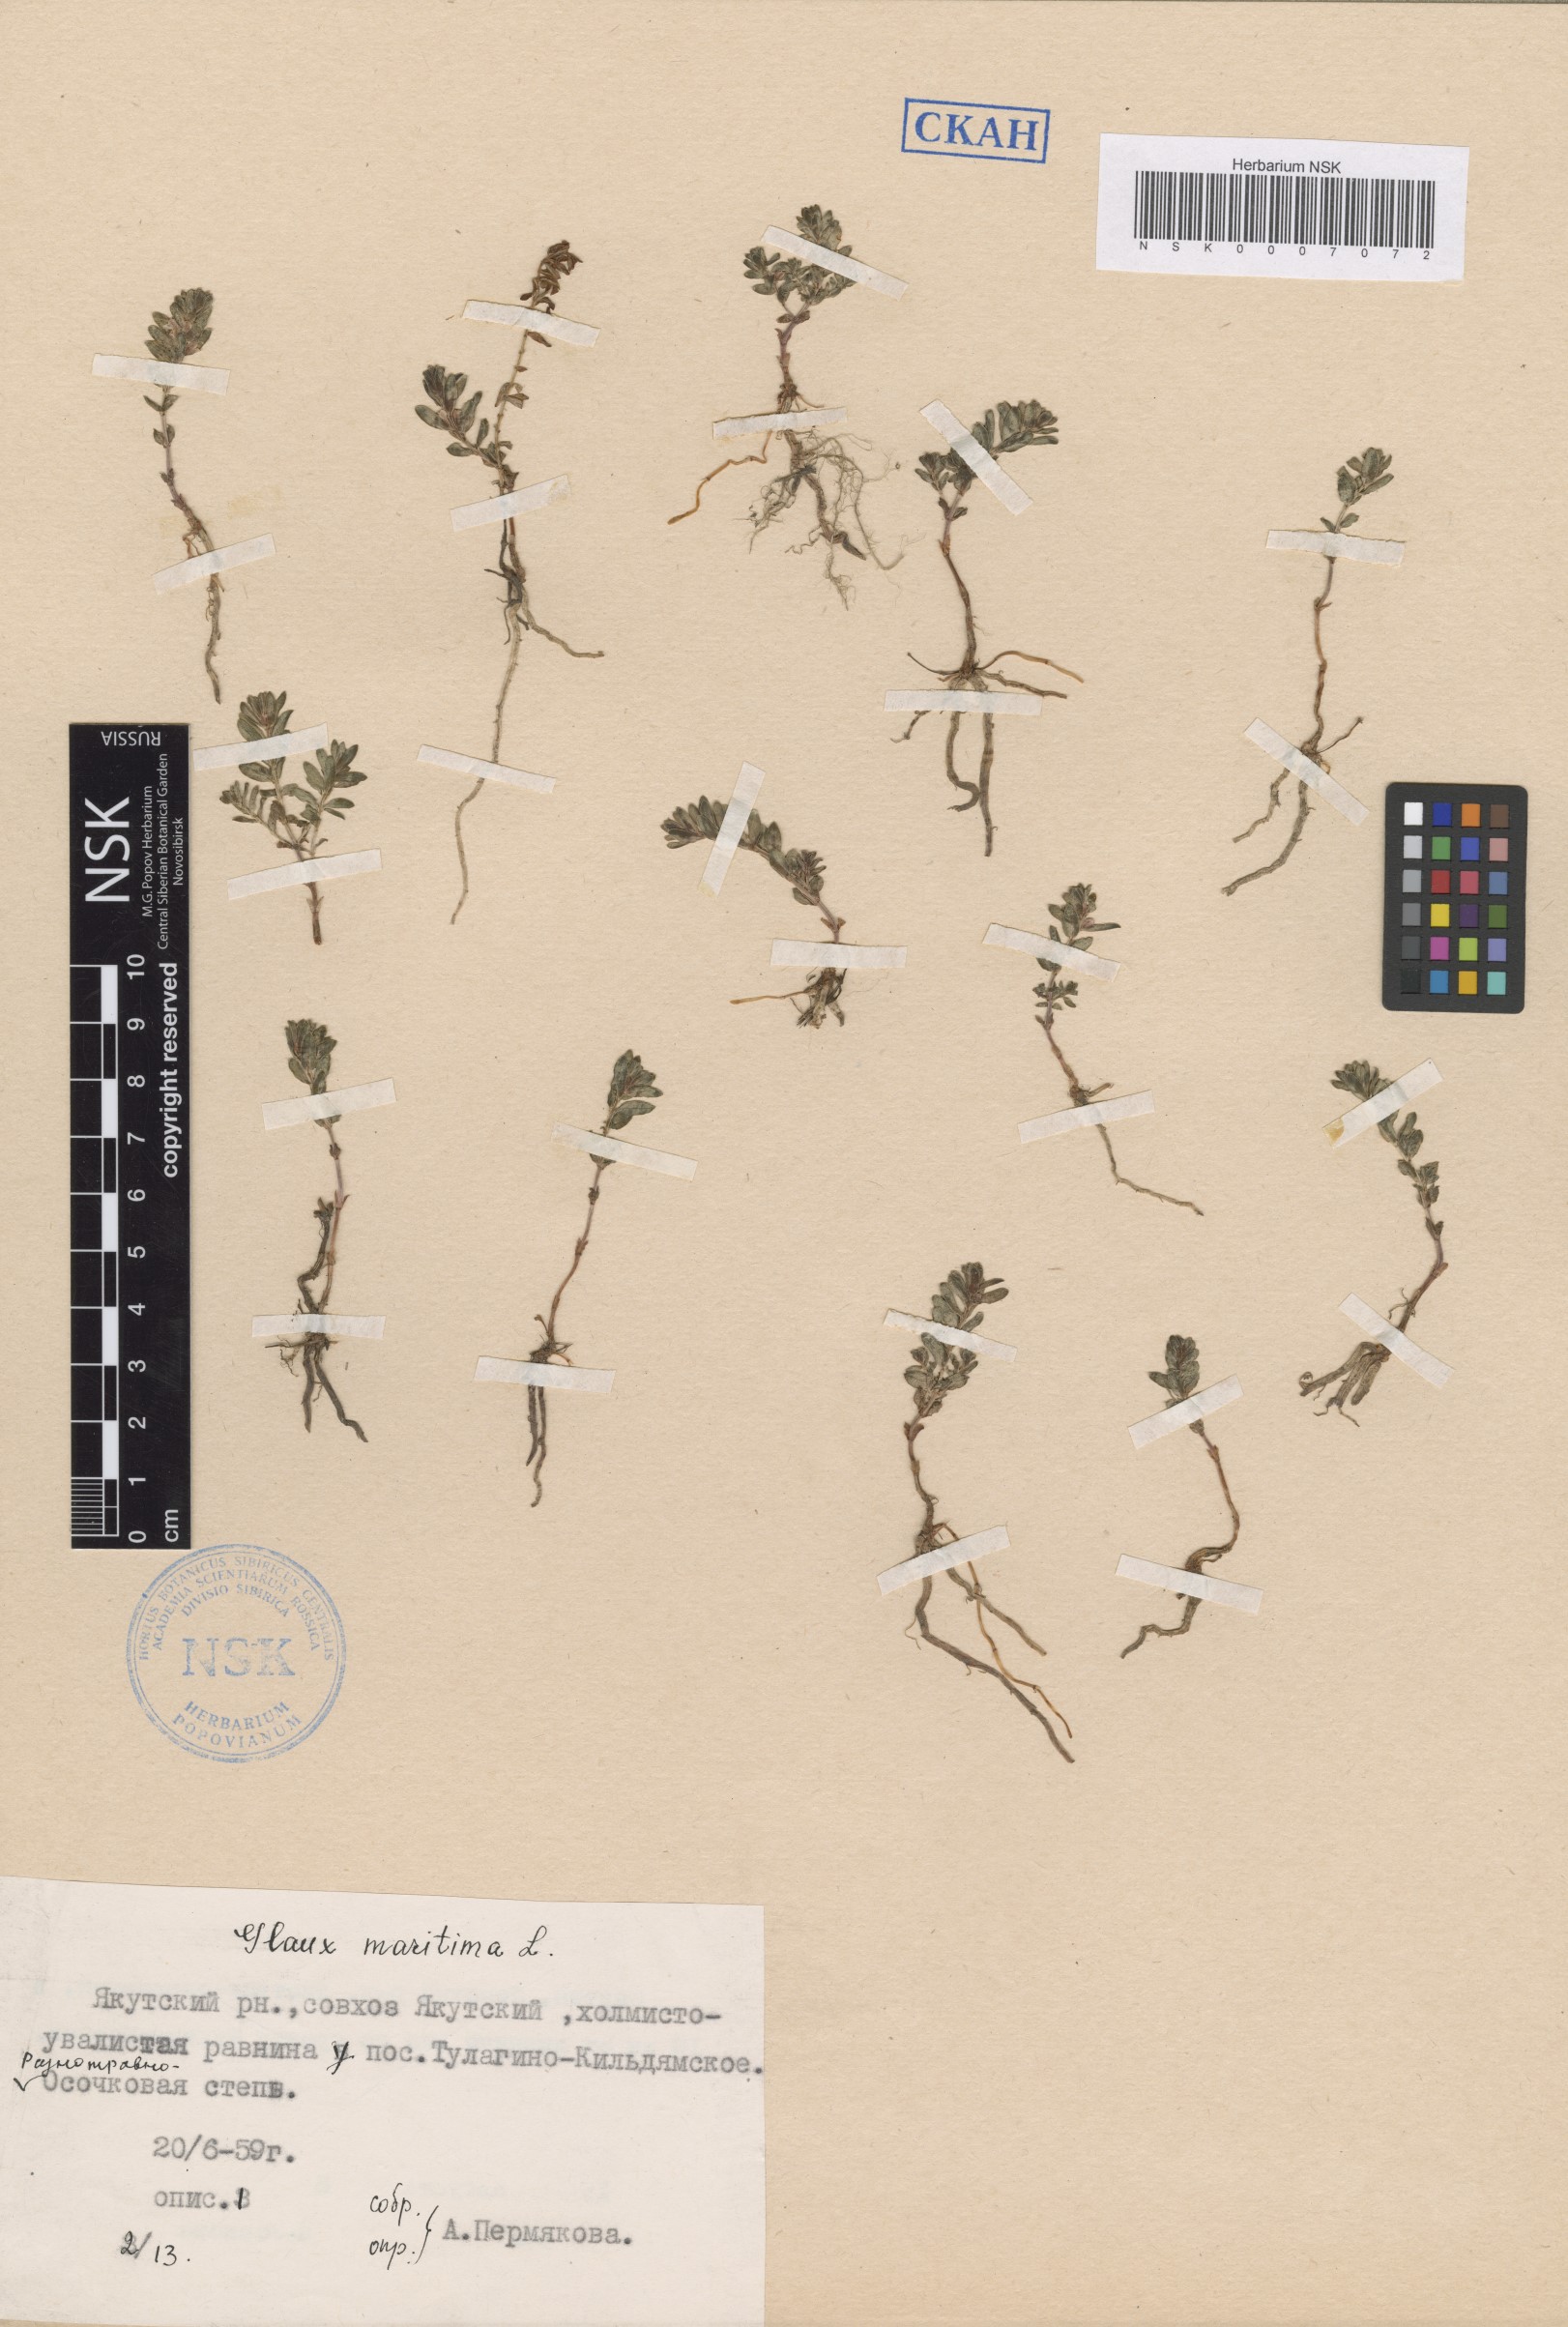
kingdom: Plantae
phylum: Tracheophyta
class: Magnoliopsida
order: Ericales
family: Primulaceae
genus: Lysimachia
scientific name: Lysimachia maritima
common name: Sea milkwort
